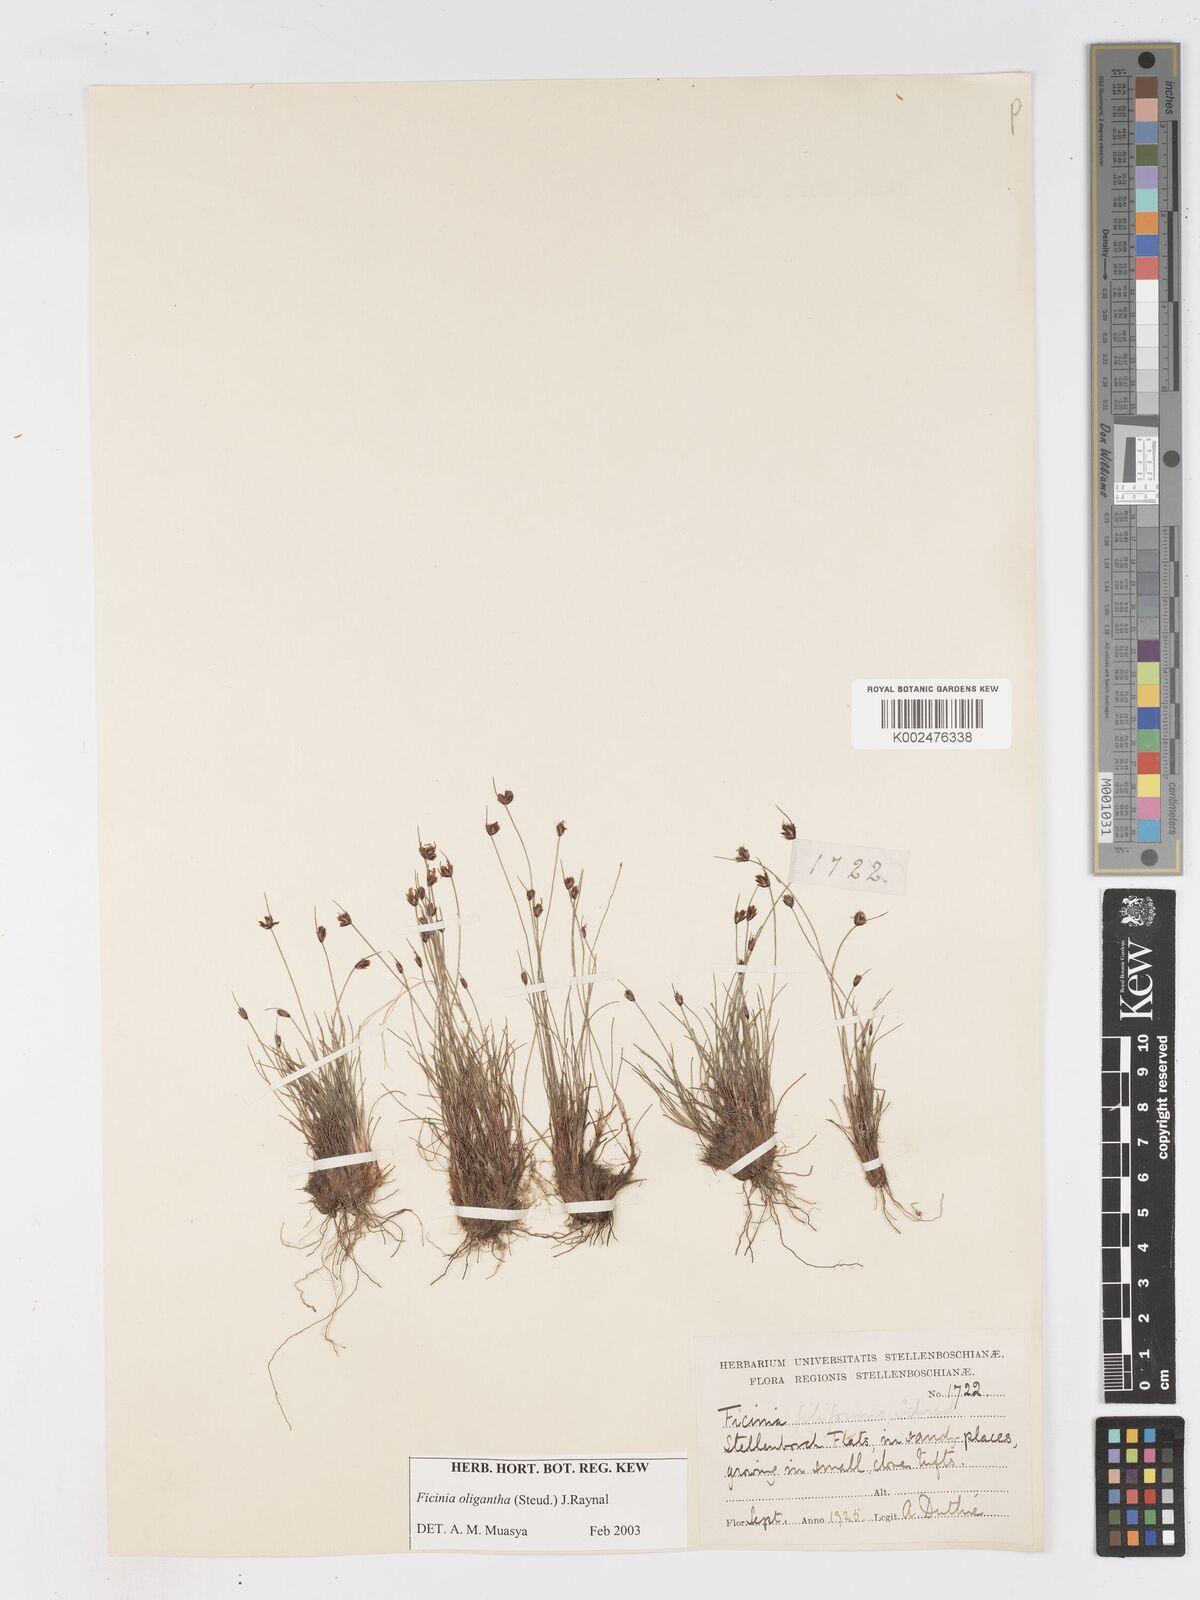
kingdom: Plantae
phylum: Tracheophyta
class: Liliopsida
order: Poales
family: Cyperaceae
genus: Ficinia
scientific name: Ficinia oligantha
